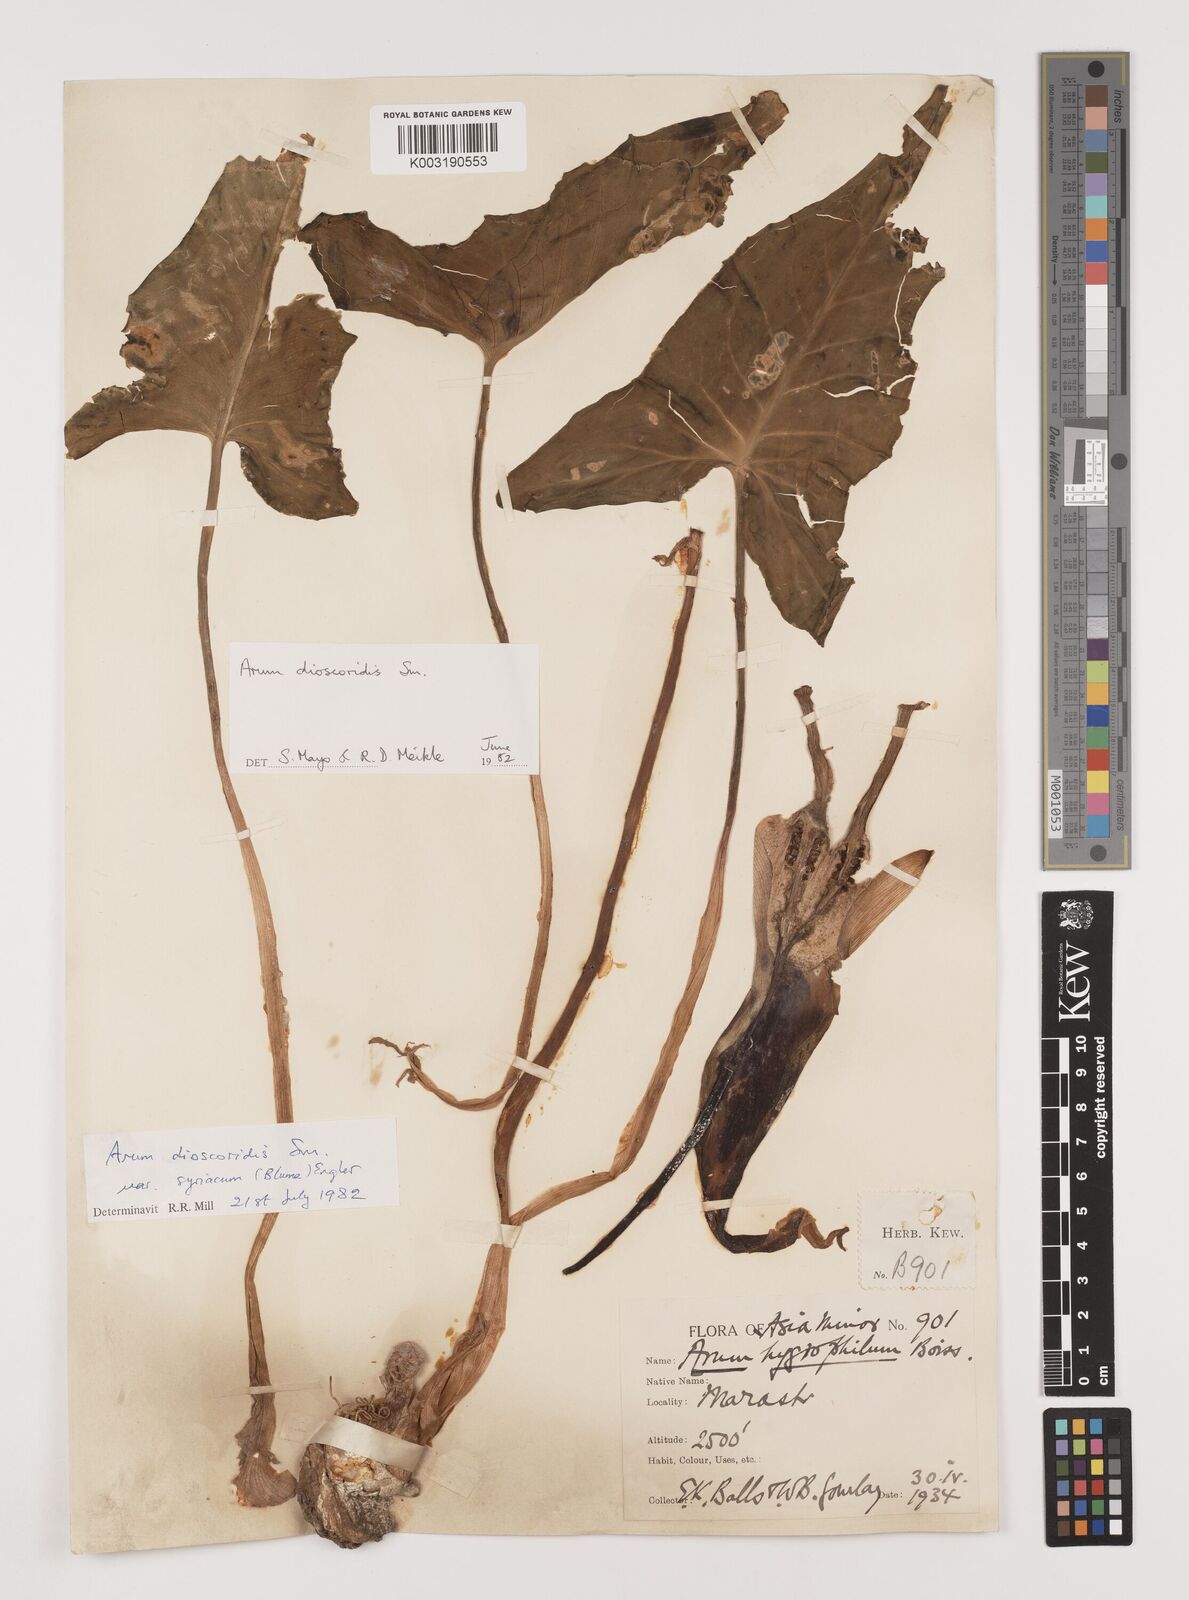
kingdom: Plantae
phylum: Tracheophyta
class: Liliopsida
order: Alismatales
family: Araceae
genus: Arum
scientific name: Arum dioscoridis
